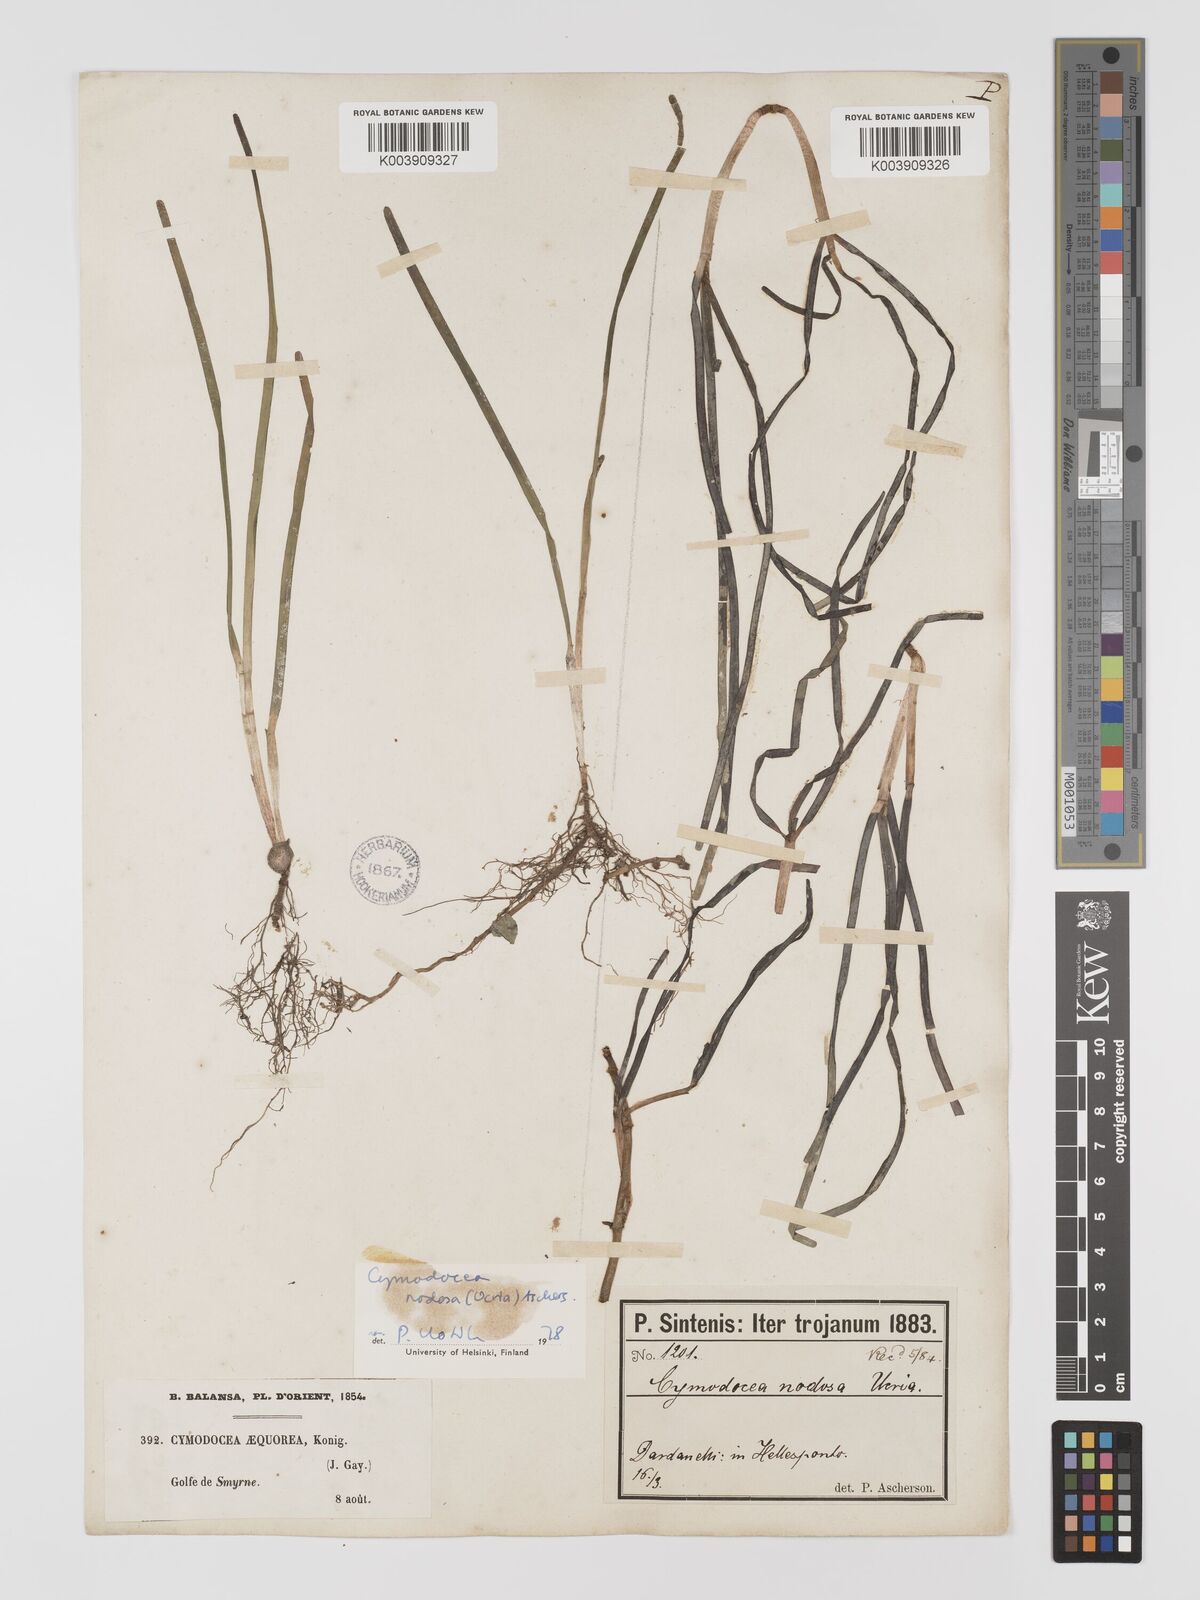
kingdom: Plantae
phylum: Tracheophyta
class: Liliopsida
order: Alismatales
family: Cymodoceaceae
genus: Cymodocea
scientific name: Cymodocea nodosa
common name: Slender seagrass
